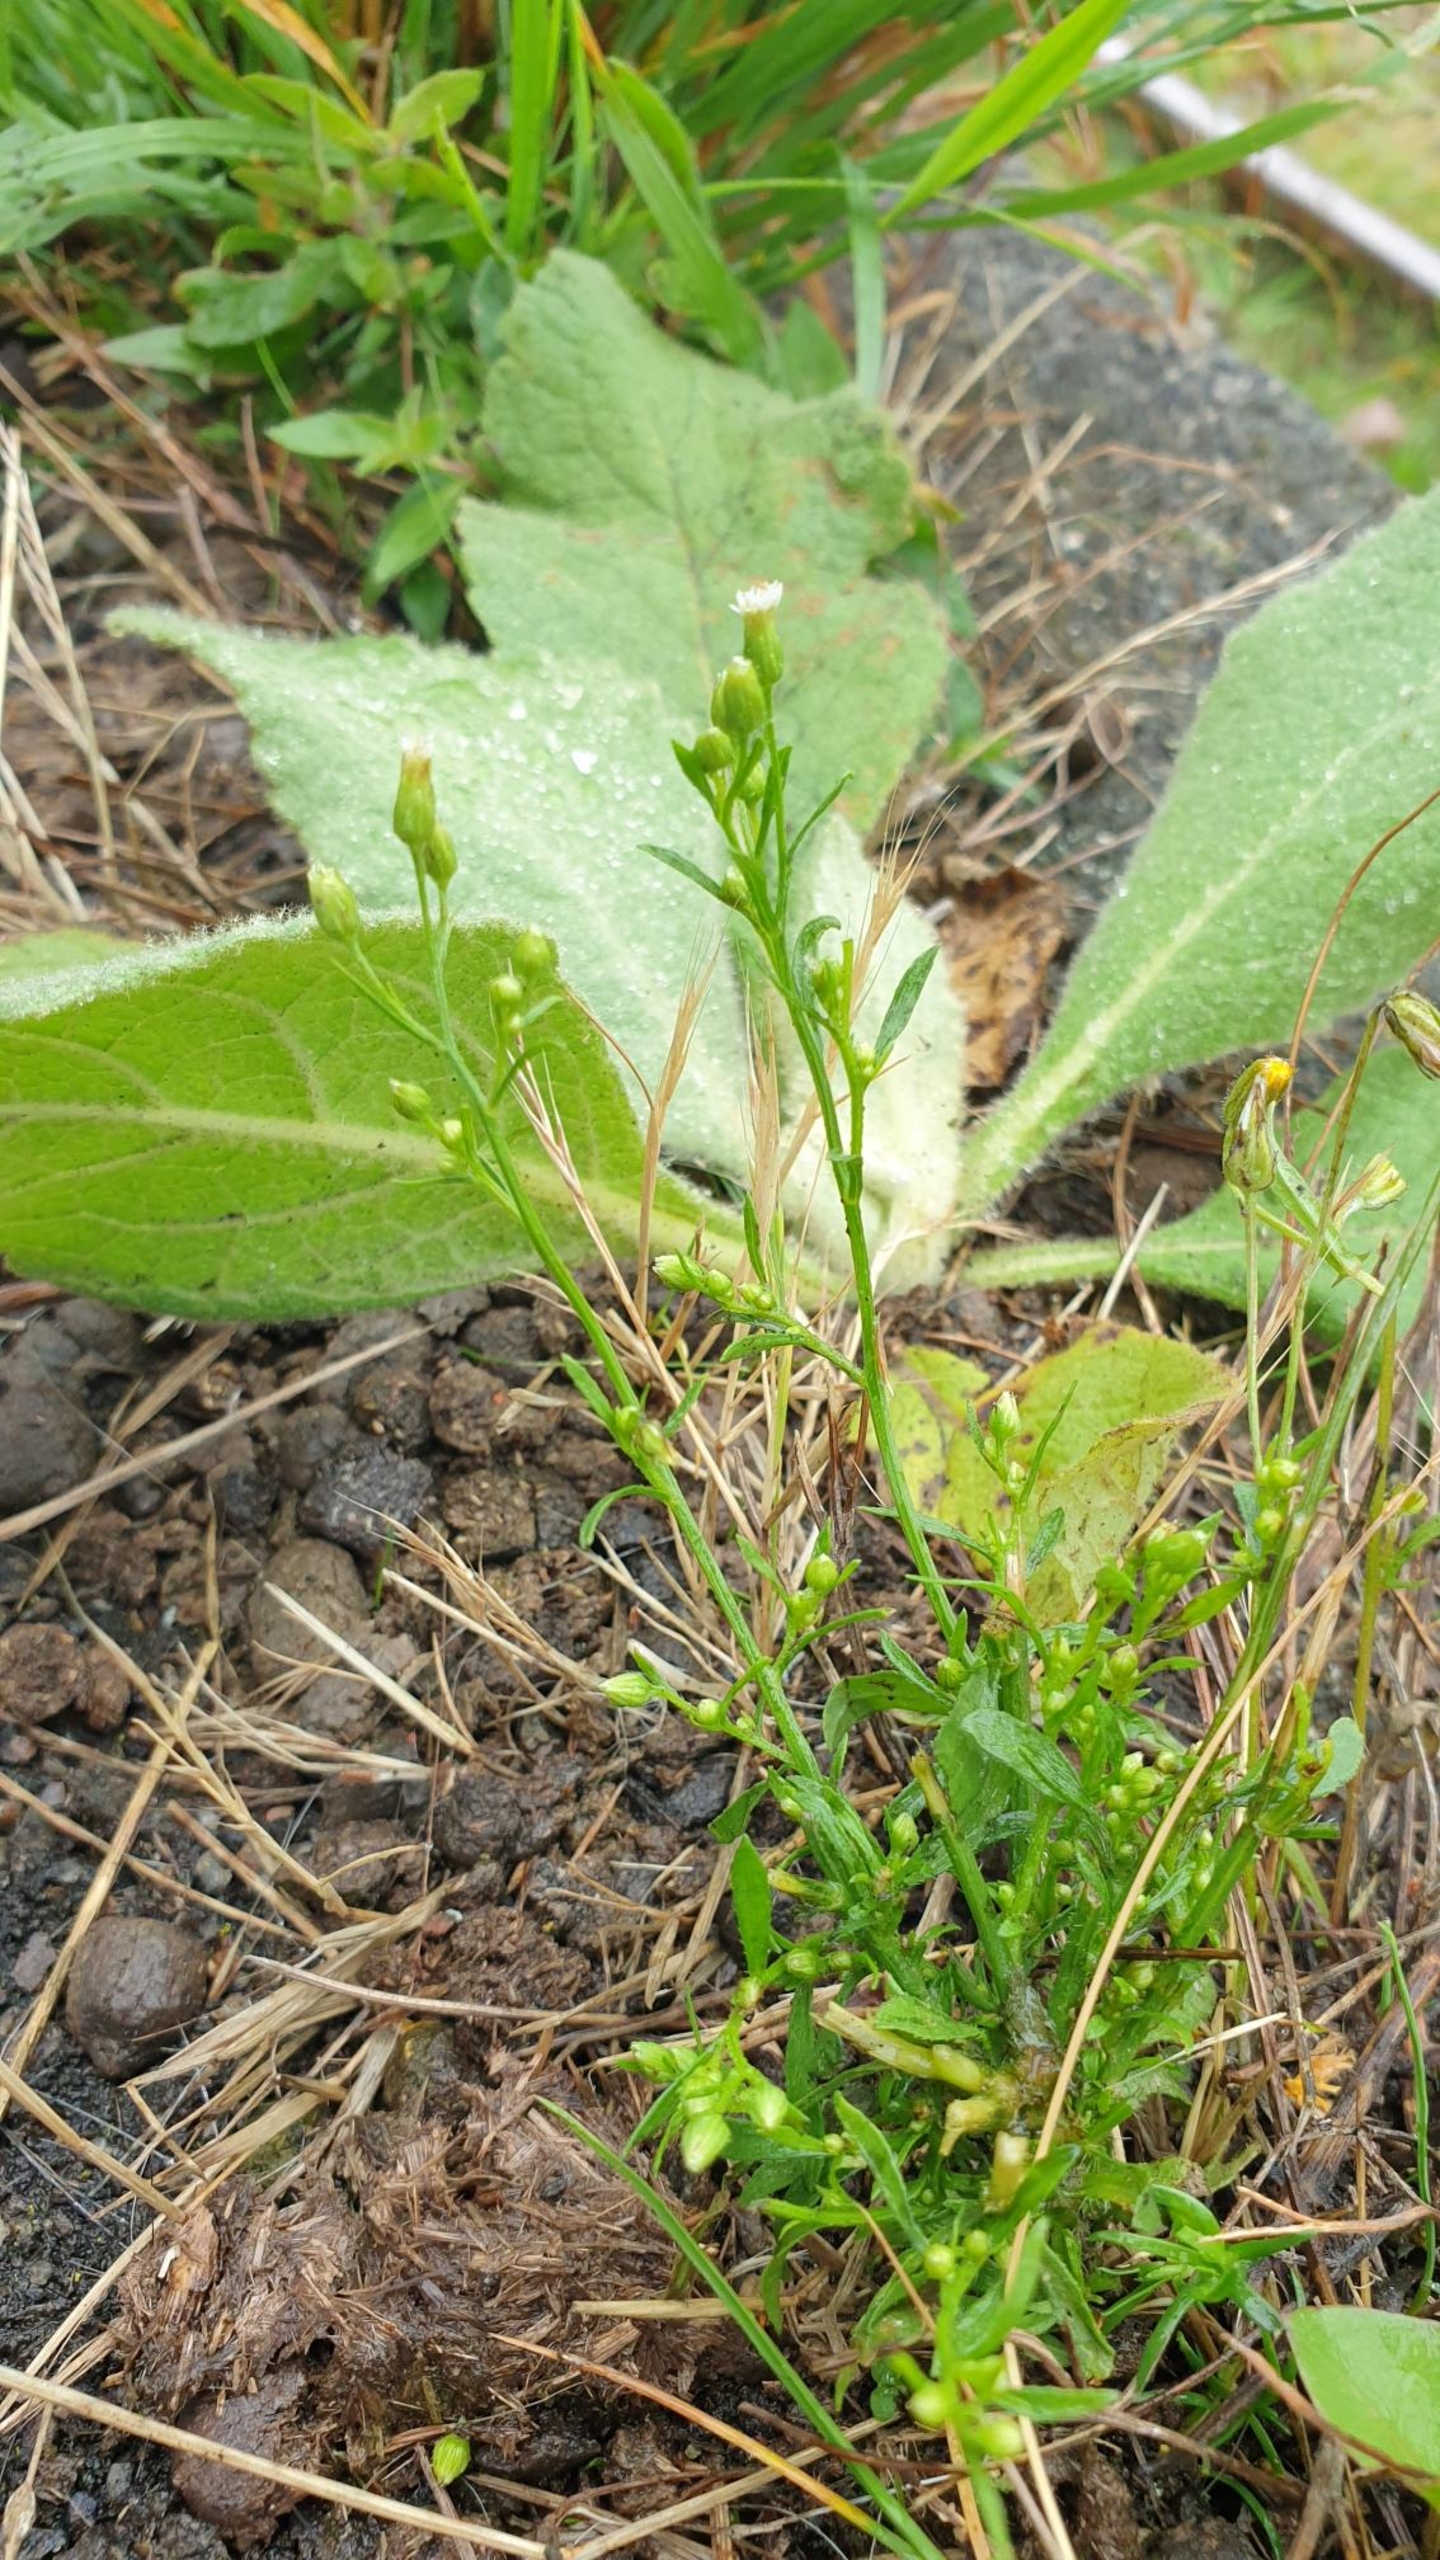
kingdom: Plantae
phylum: Tracheophyta
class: Magnoliopsida
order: Asterales
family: Asteraceae
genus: Erigeron
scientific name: Erigeron canadensis
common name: Kanadisk bakkestjerne
